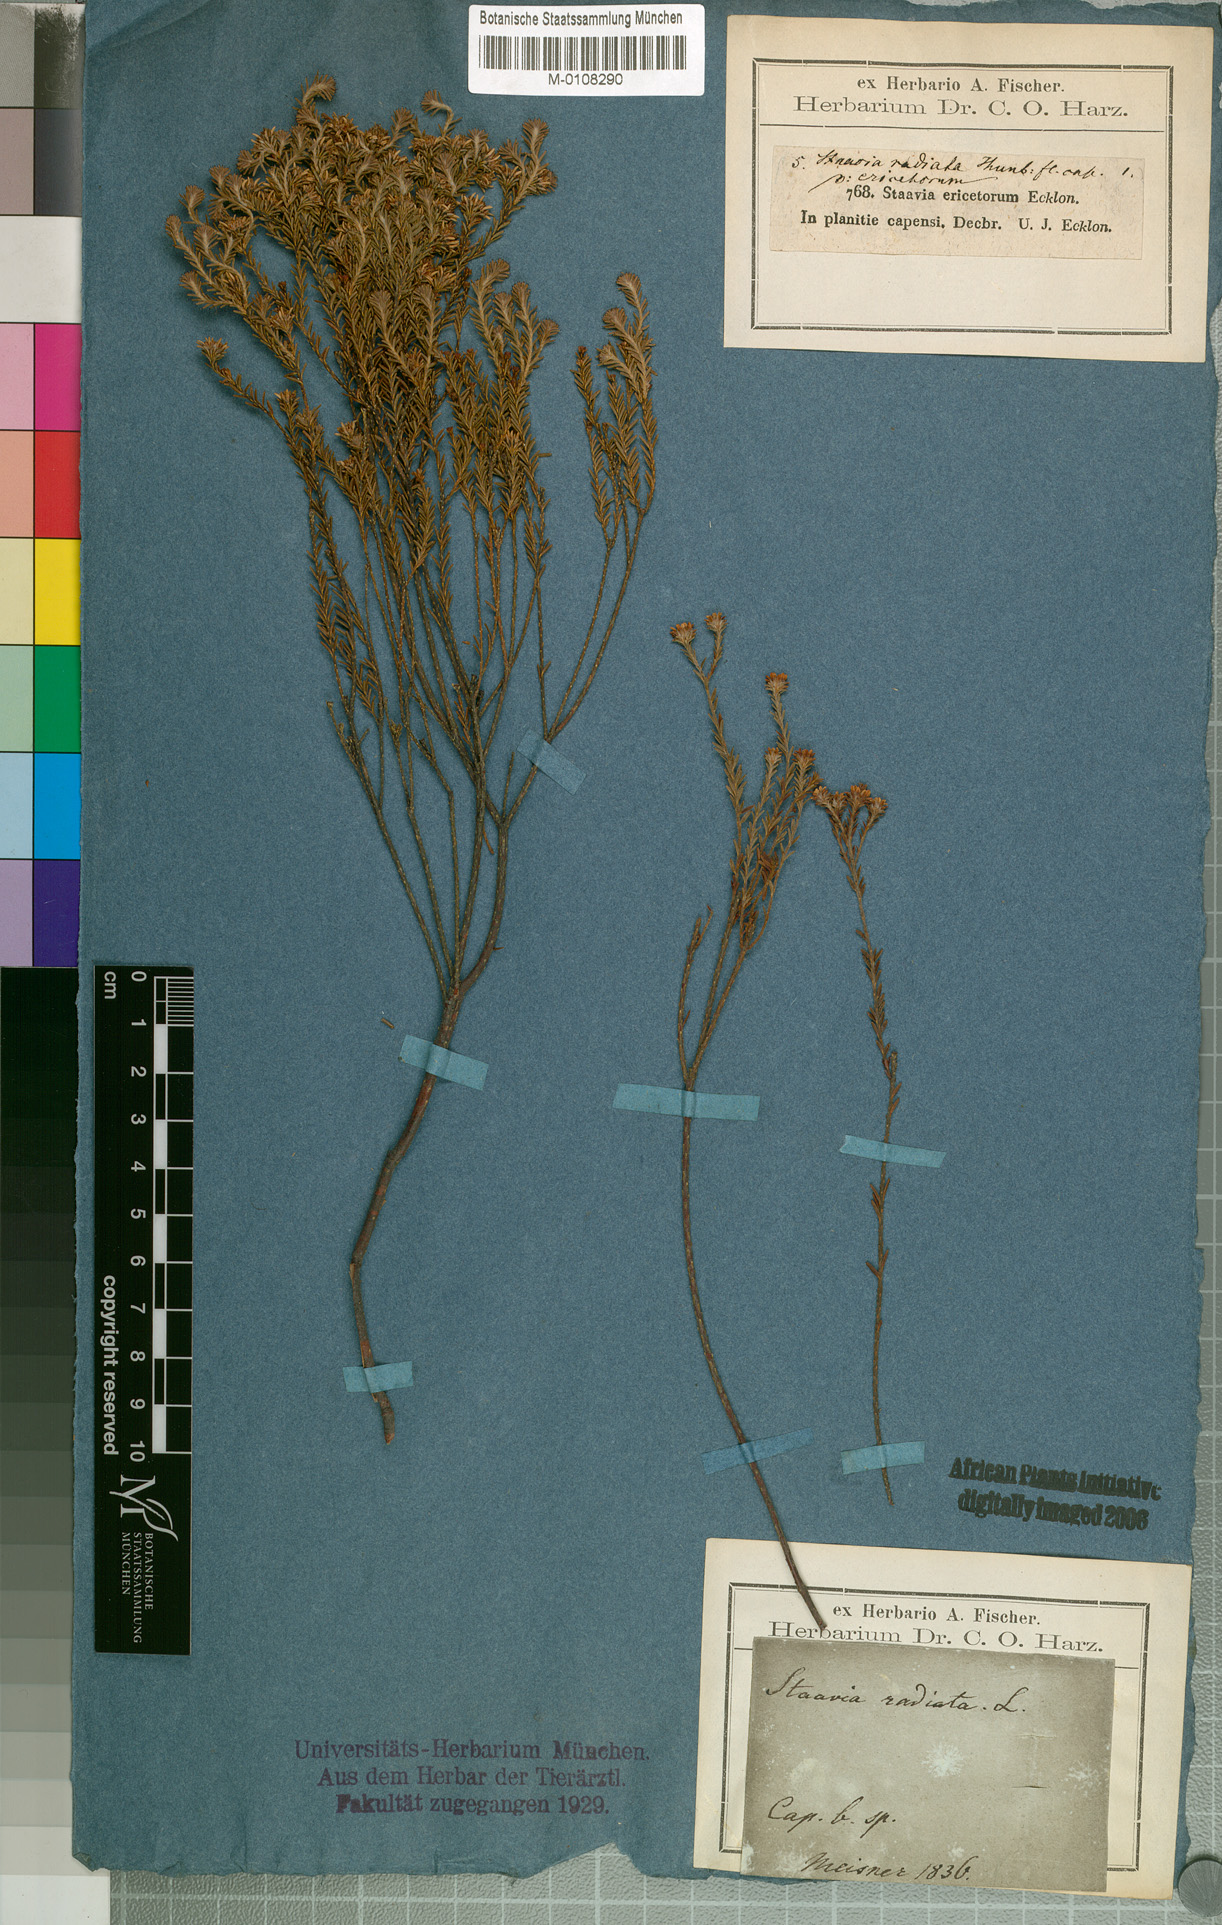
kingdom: Plantae
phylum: Tracheophyta
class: Magnoliopsida
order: Bruniales
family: Bruniaceae
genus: Staavia
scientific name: Staavia radiata
